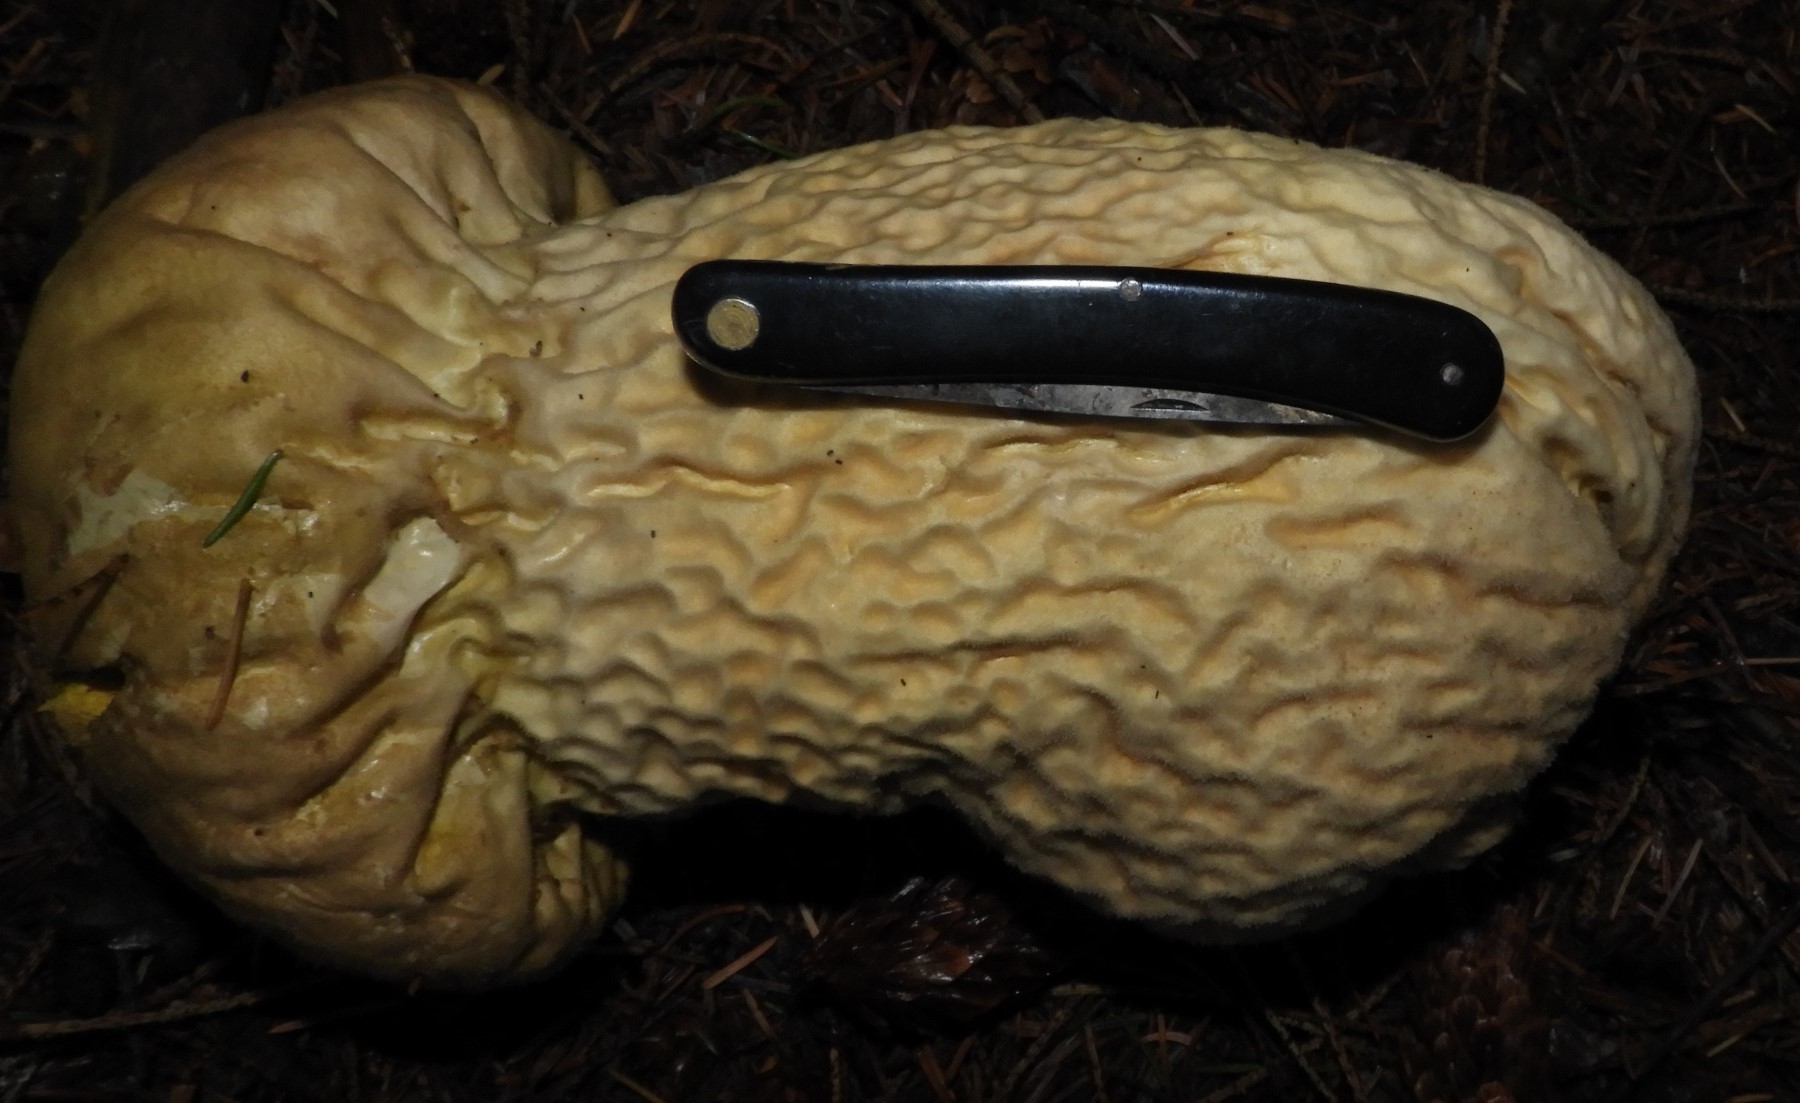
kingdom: Fungi
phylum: Basidiomycota
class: Agaricomycetes
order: Agaricales
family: Lycoperdaceae
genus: Lycoperdon
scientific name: Lycoperdon excipuliforme
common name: højstokket støvbold
